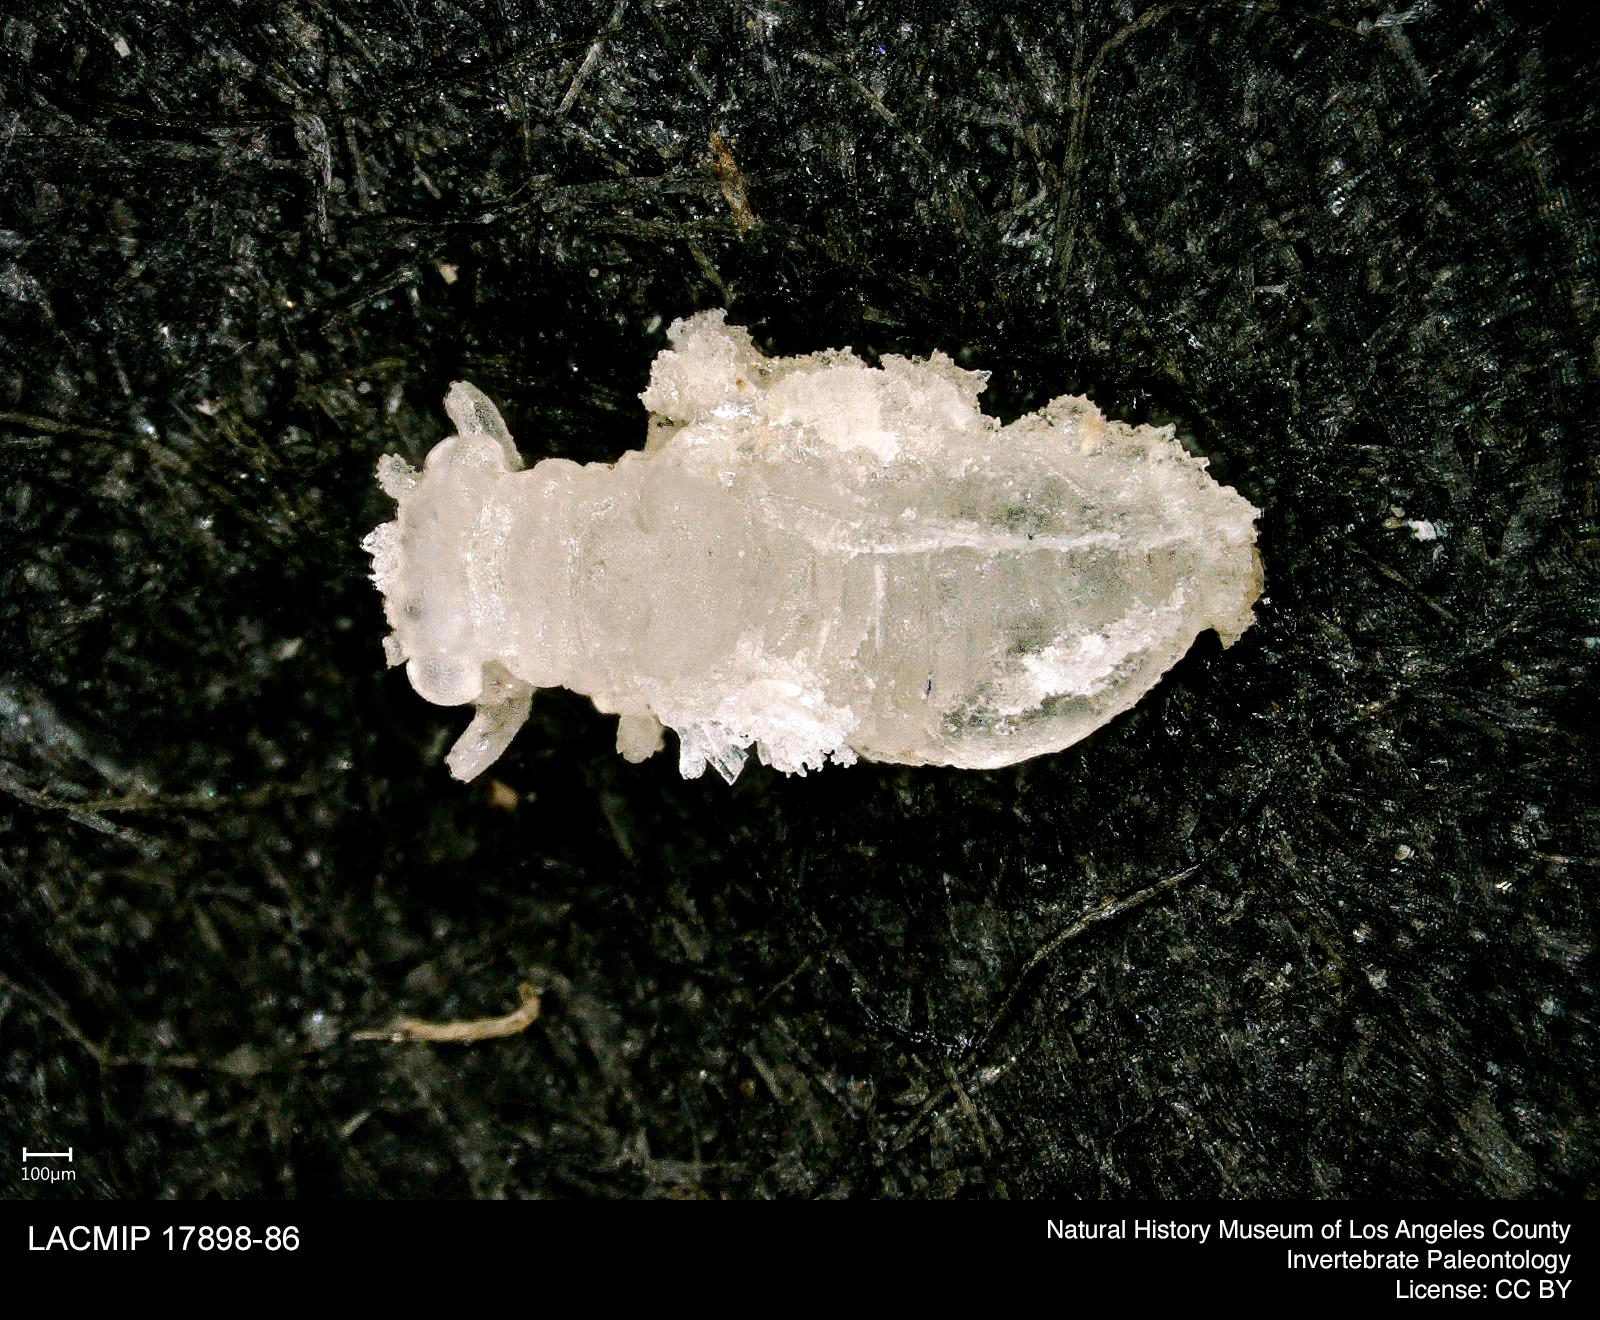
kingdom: Animalia
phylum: Arthropoda
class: Insecta
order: Hemiptera
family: Psyllidae
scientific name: Psyllidae
